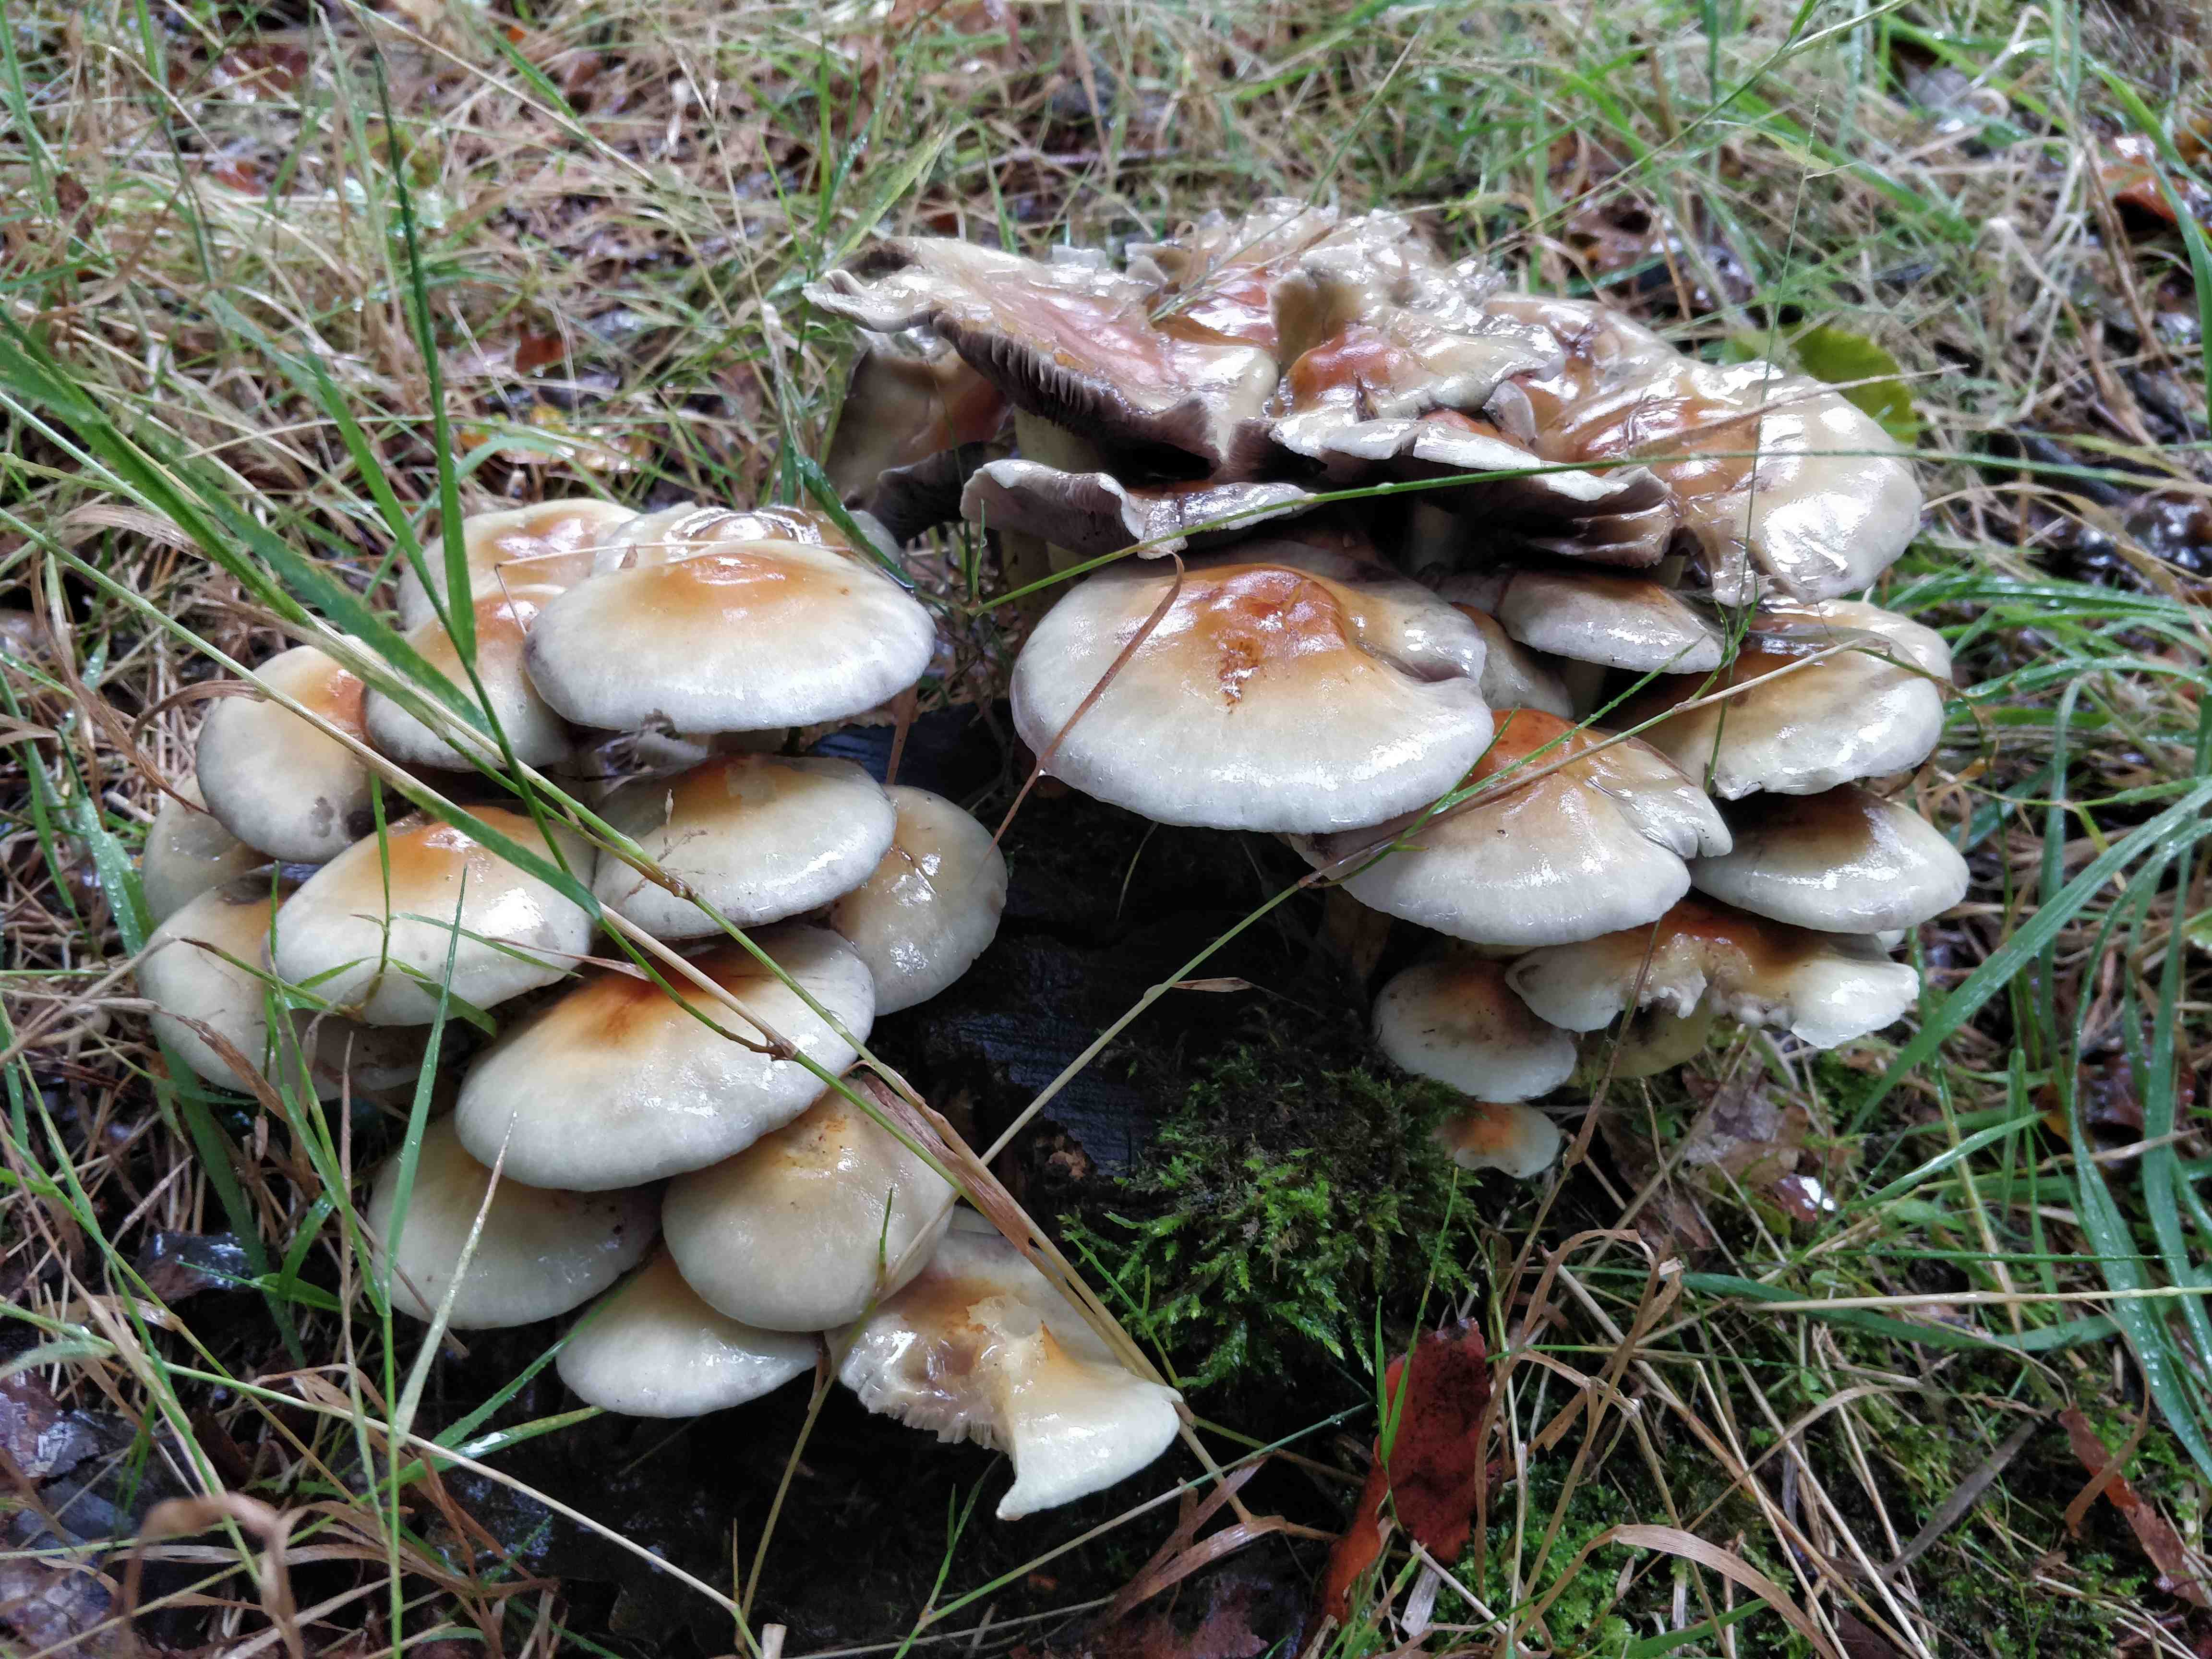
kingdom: Fungi
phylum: Basidiomycota
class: Agaricomycetes
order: Agaricales
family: Strophariaceae
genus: Hypholoma
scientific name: Hypholoma fasciculare
